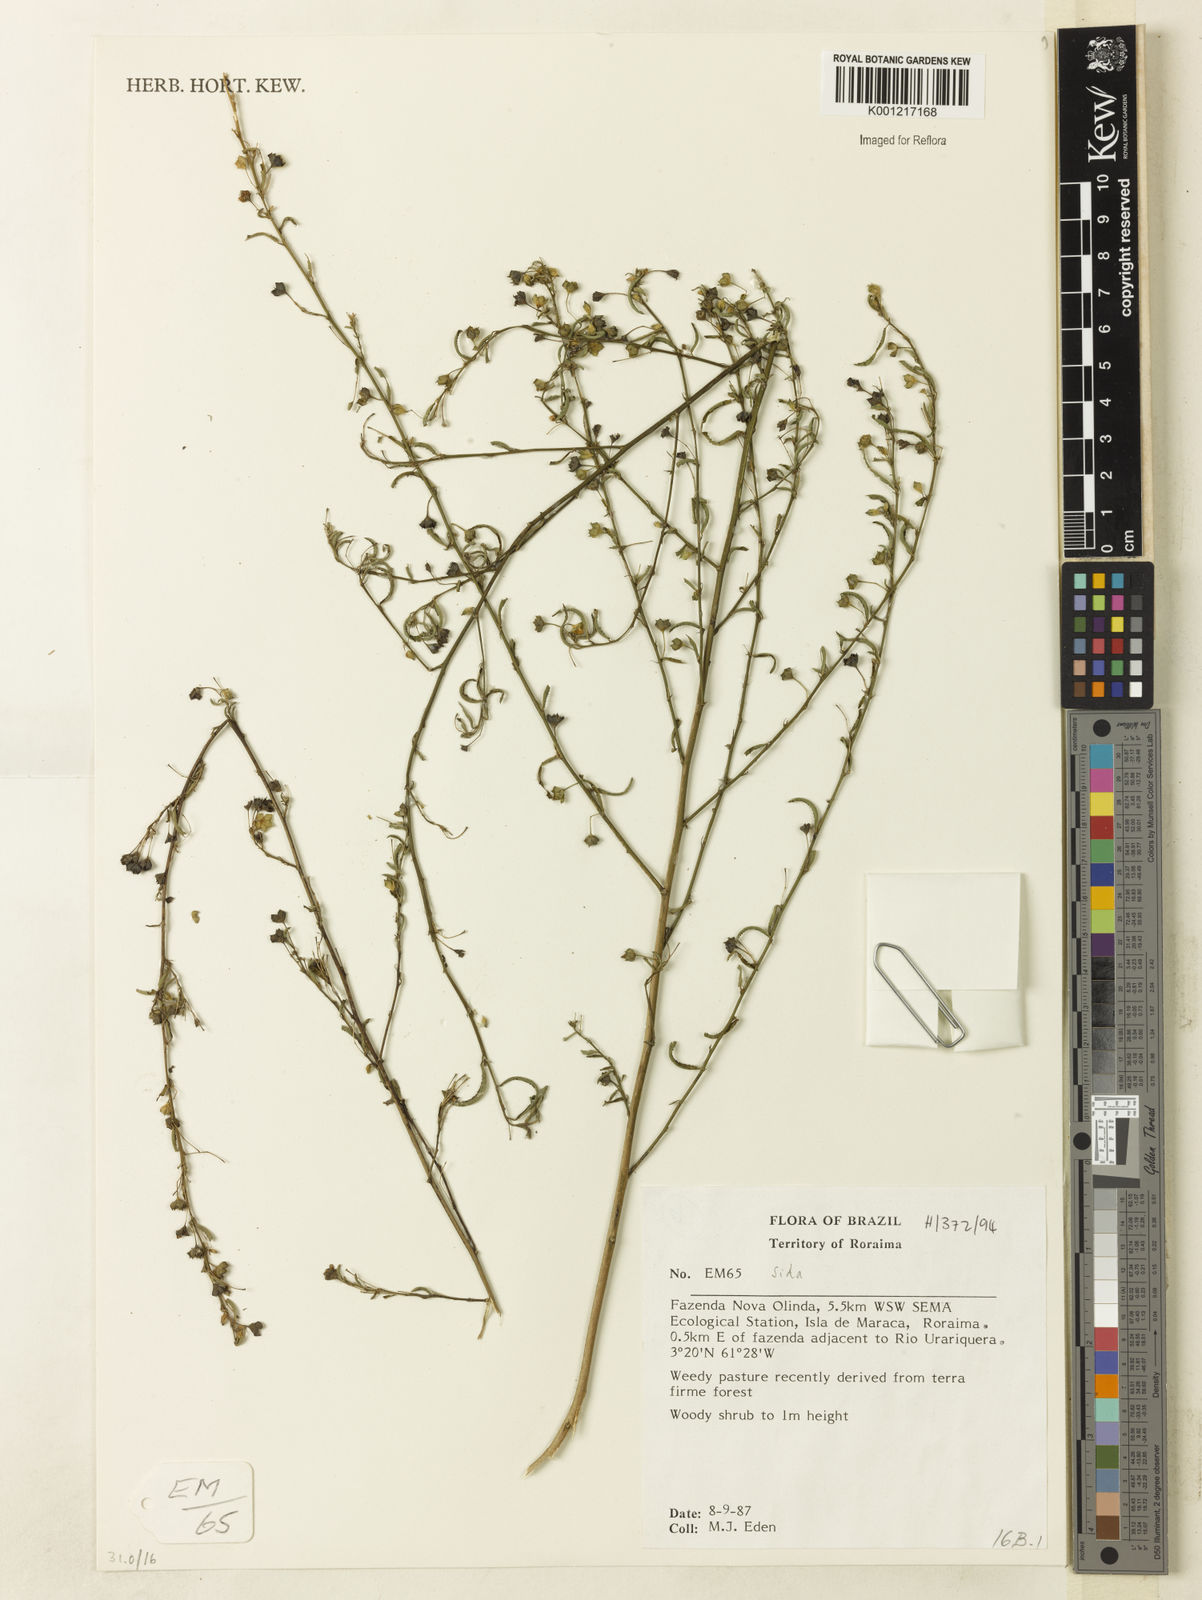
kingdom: Plantae
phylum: Tracheophyta
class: Magnoliopsida
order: Malvales
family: Malvaceae
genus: Sida
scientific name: Sida
